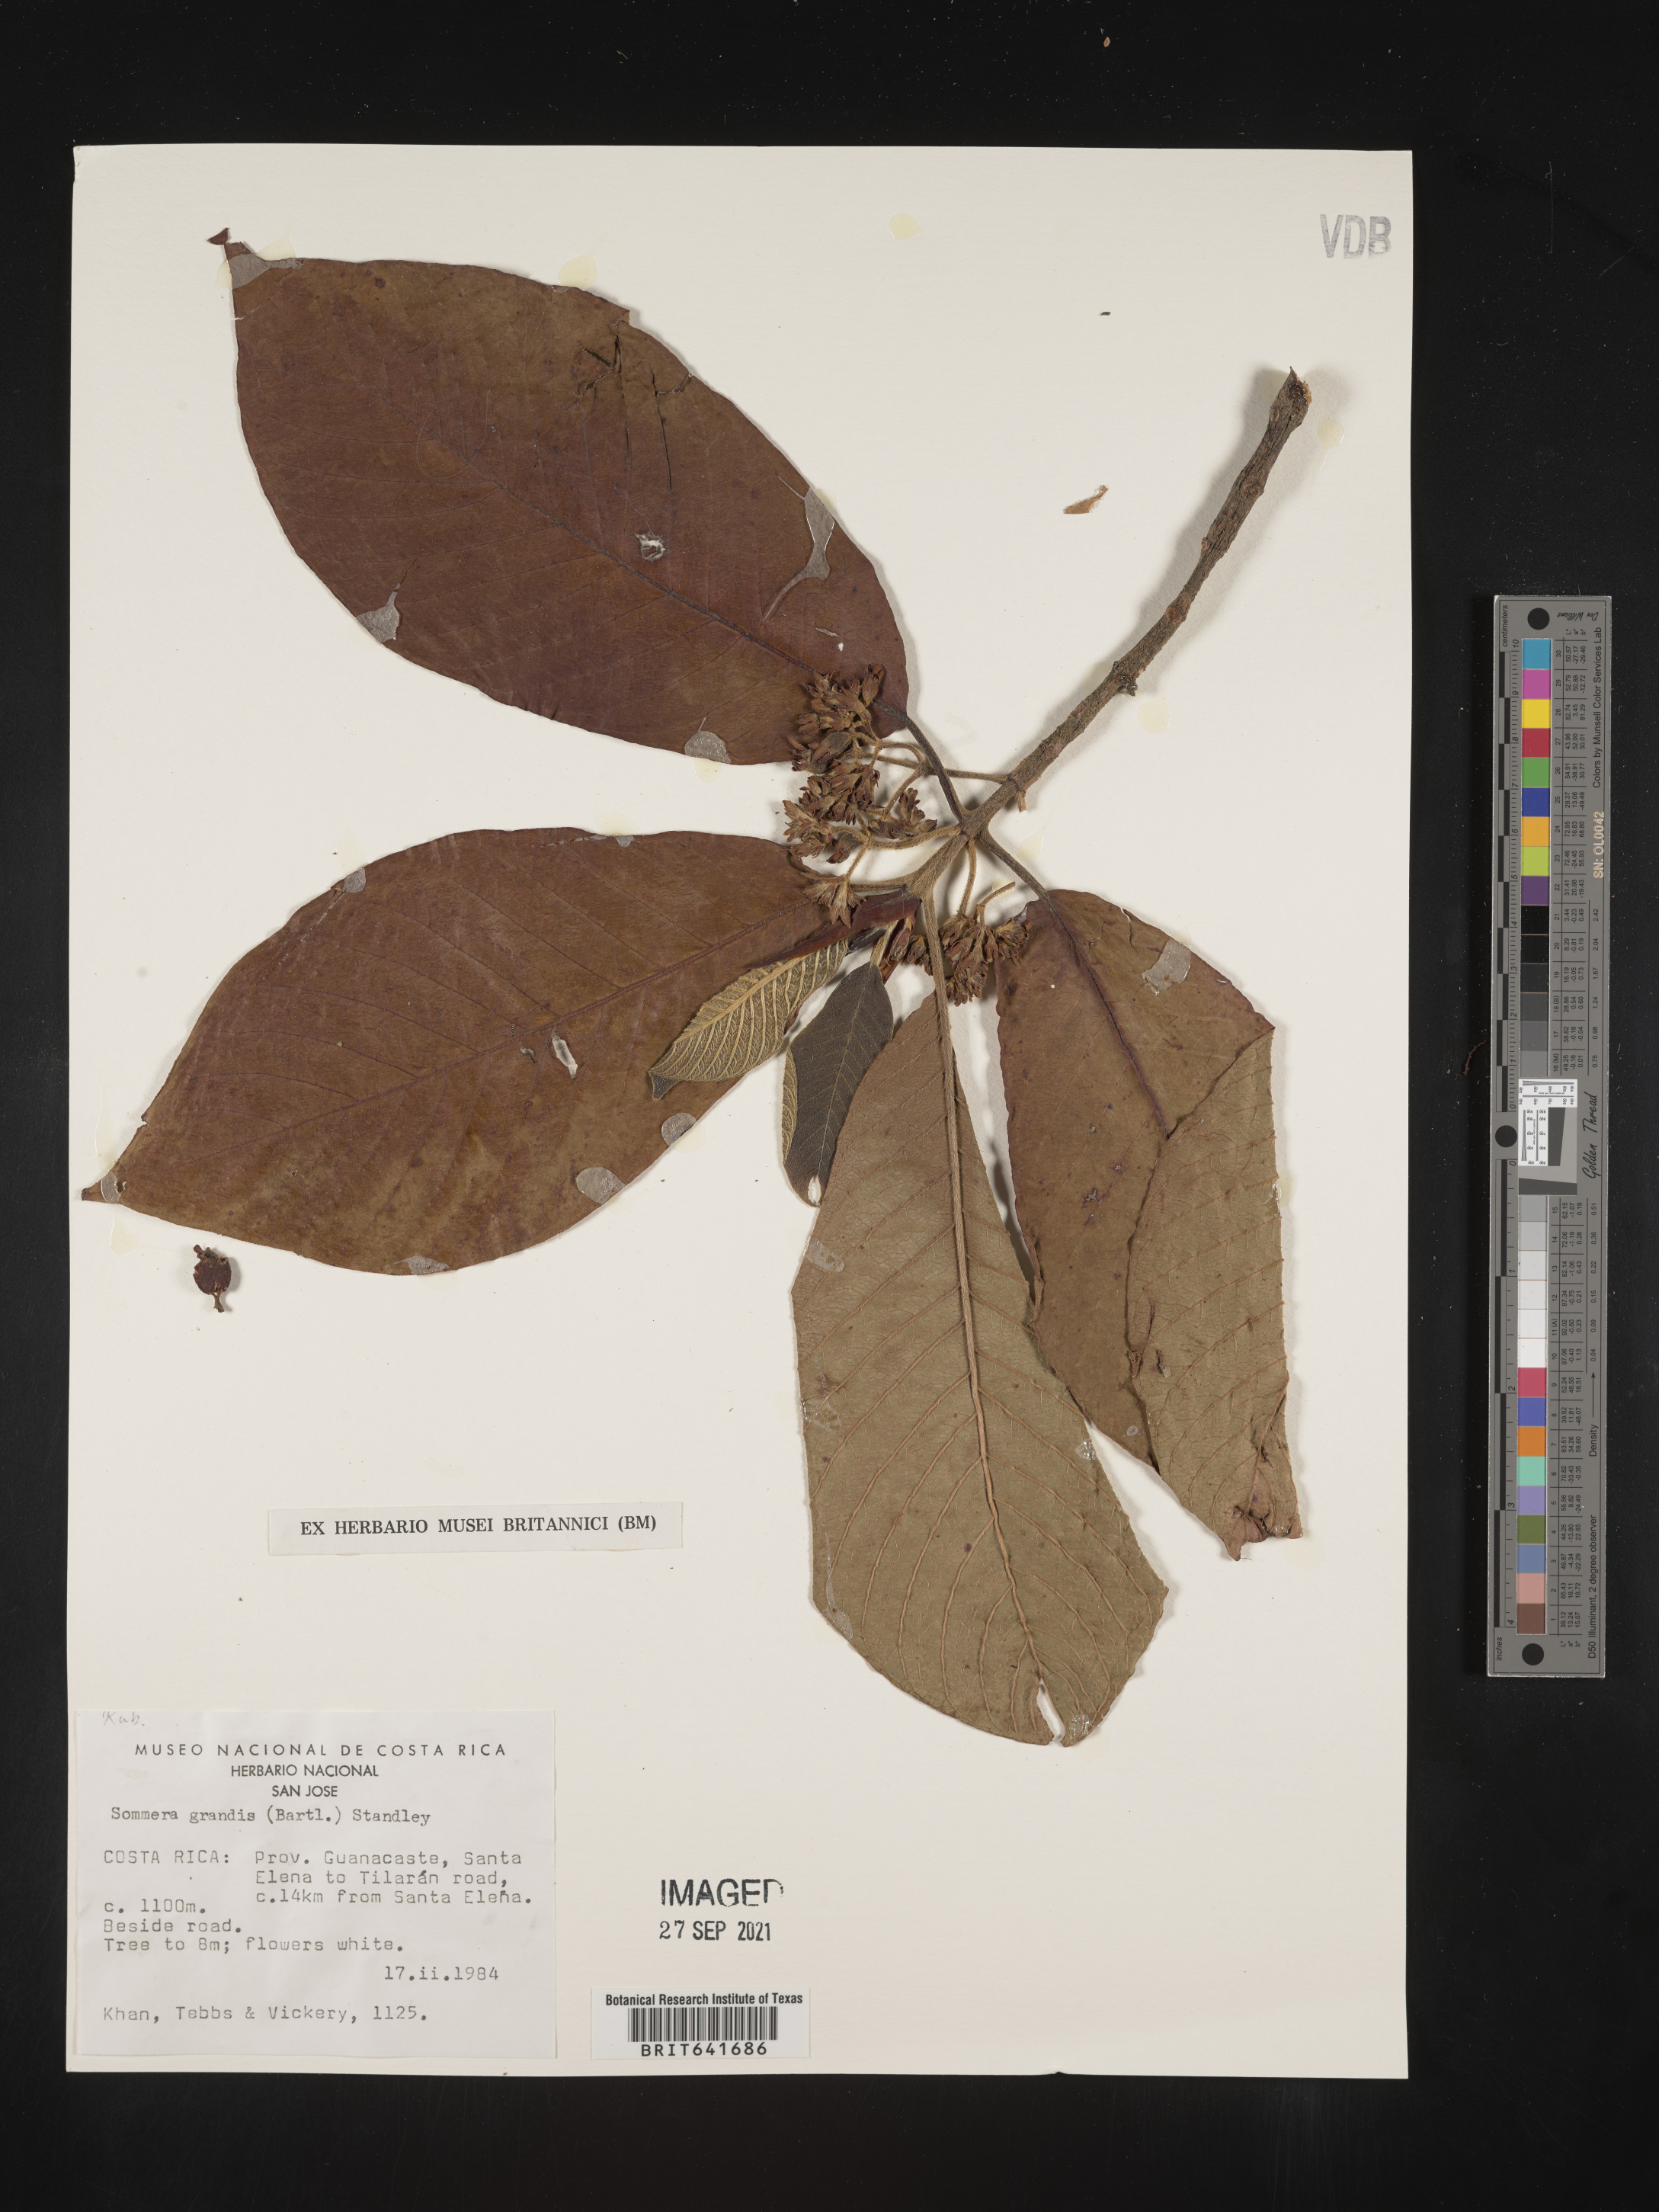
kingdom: Plantae
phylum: Tracheophyta
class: Magnoliopsida
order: Gentianales
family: Rubiaceae
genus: Sommera
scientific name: Sommera
